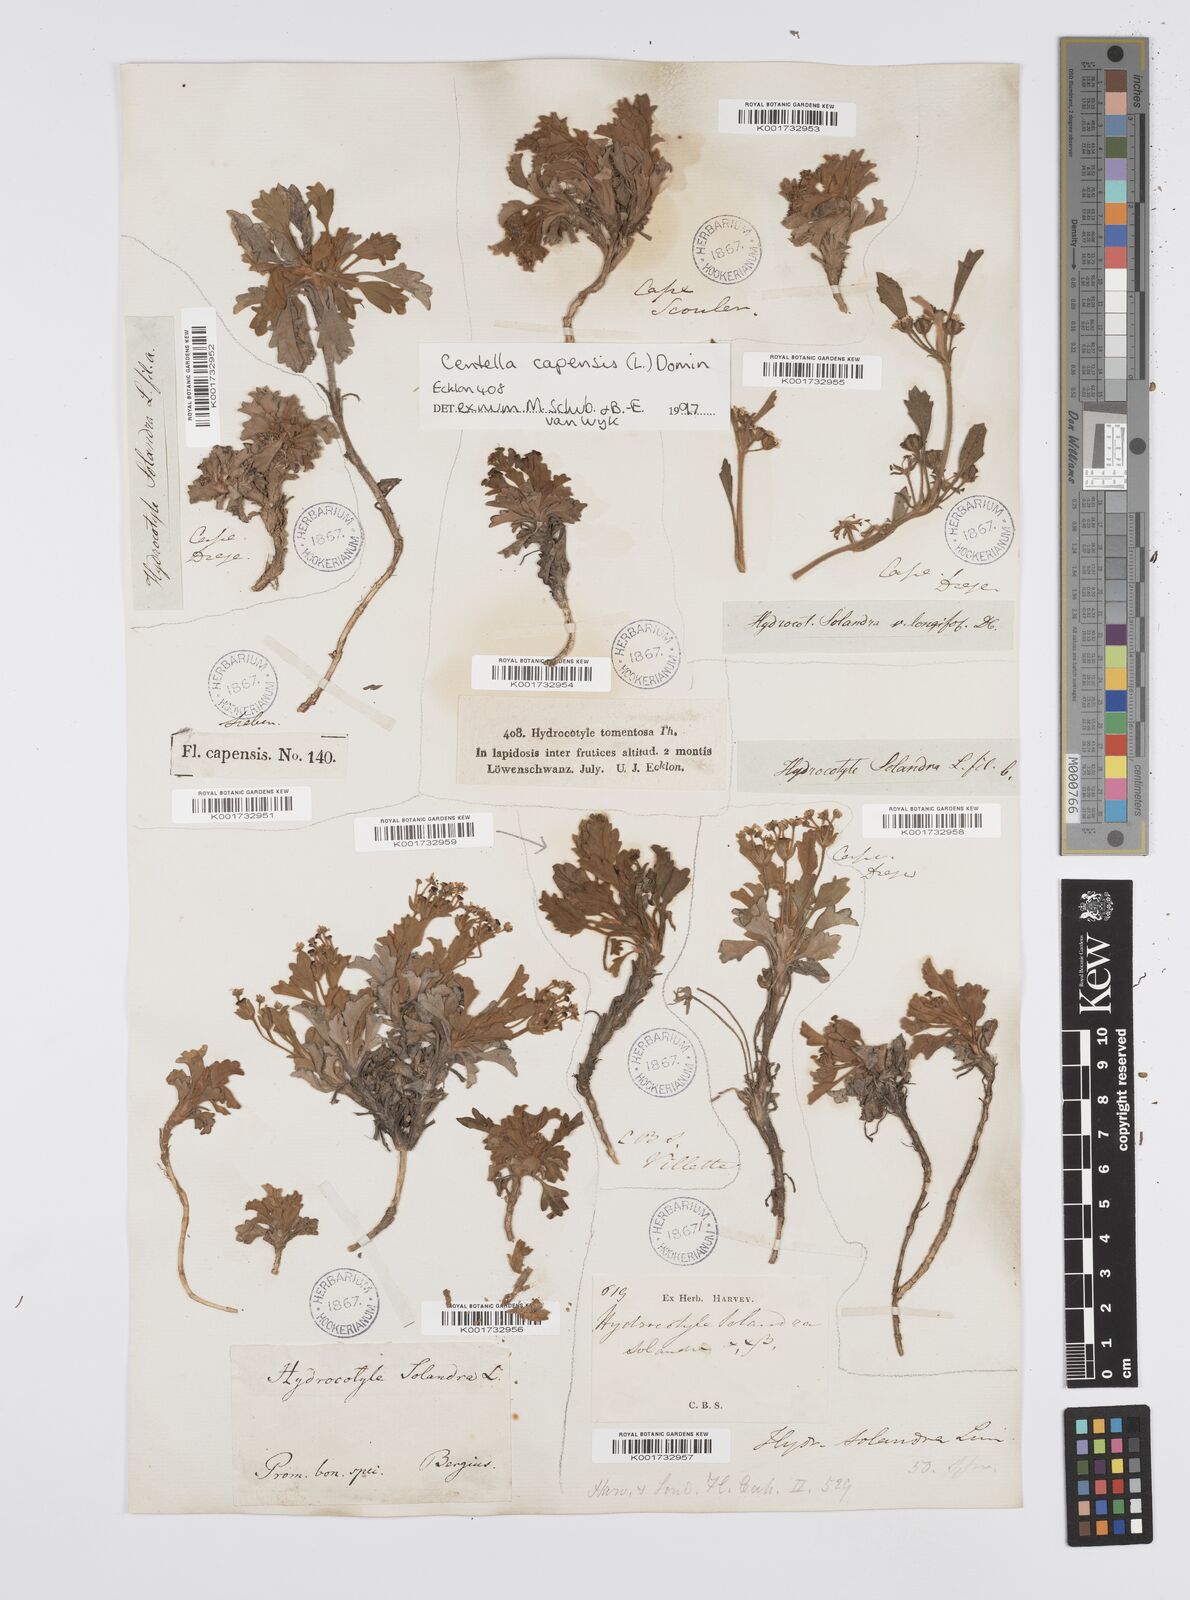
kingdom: Plantae
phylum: Tracheophyta
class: Magnoliopsida
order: Apiales
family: Apiaceae
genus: Centella
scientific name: Centella capensis
